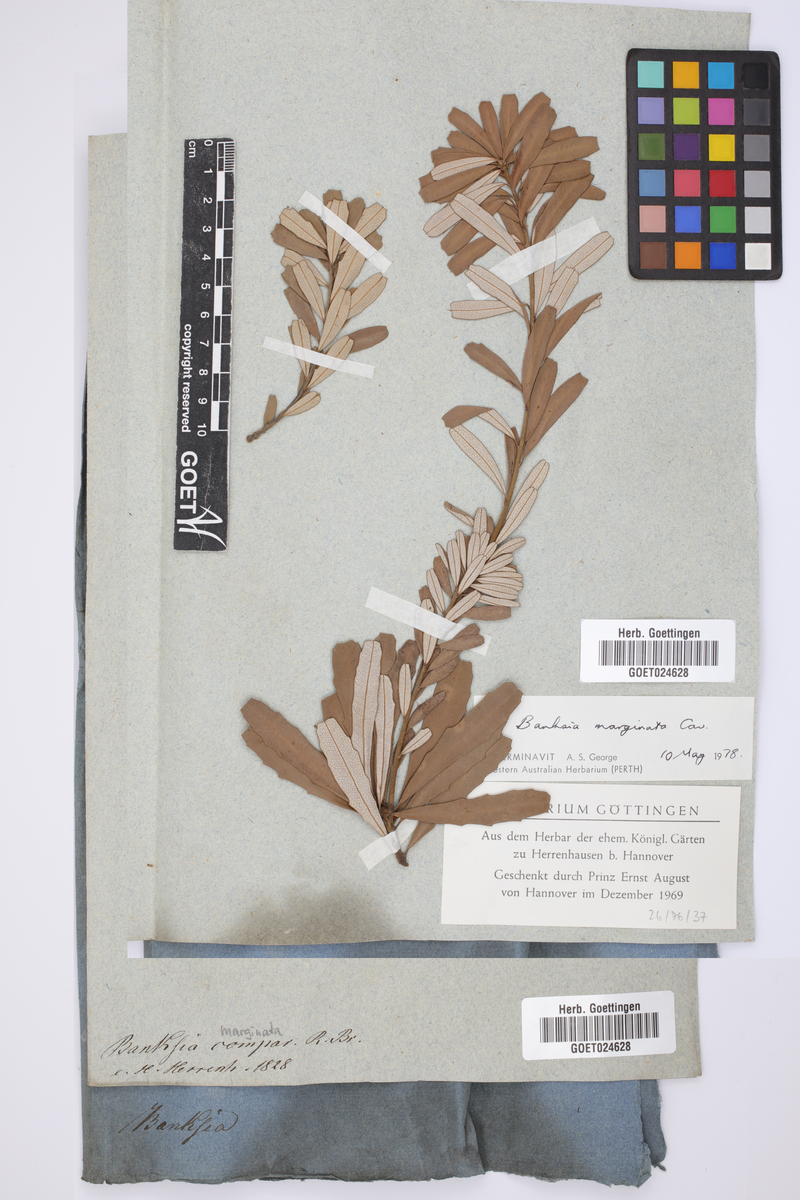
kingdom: Plantae
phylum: Tracheophyta
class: Magnoliopsida
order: Proteales
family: Proteaceae
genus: Banksia
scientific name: Banksia marginata
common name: Silver banksia
